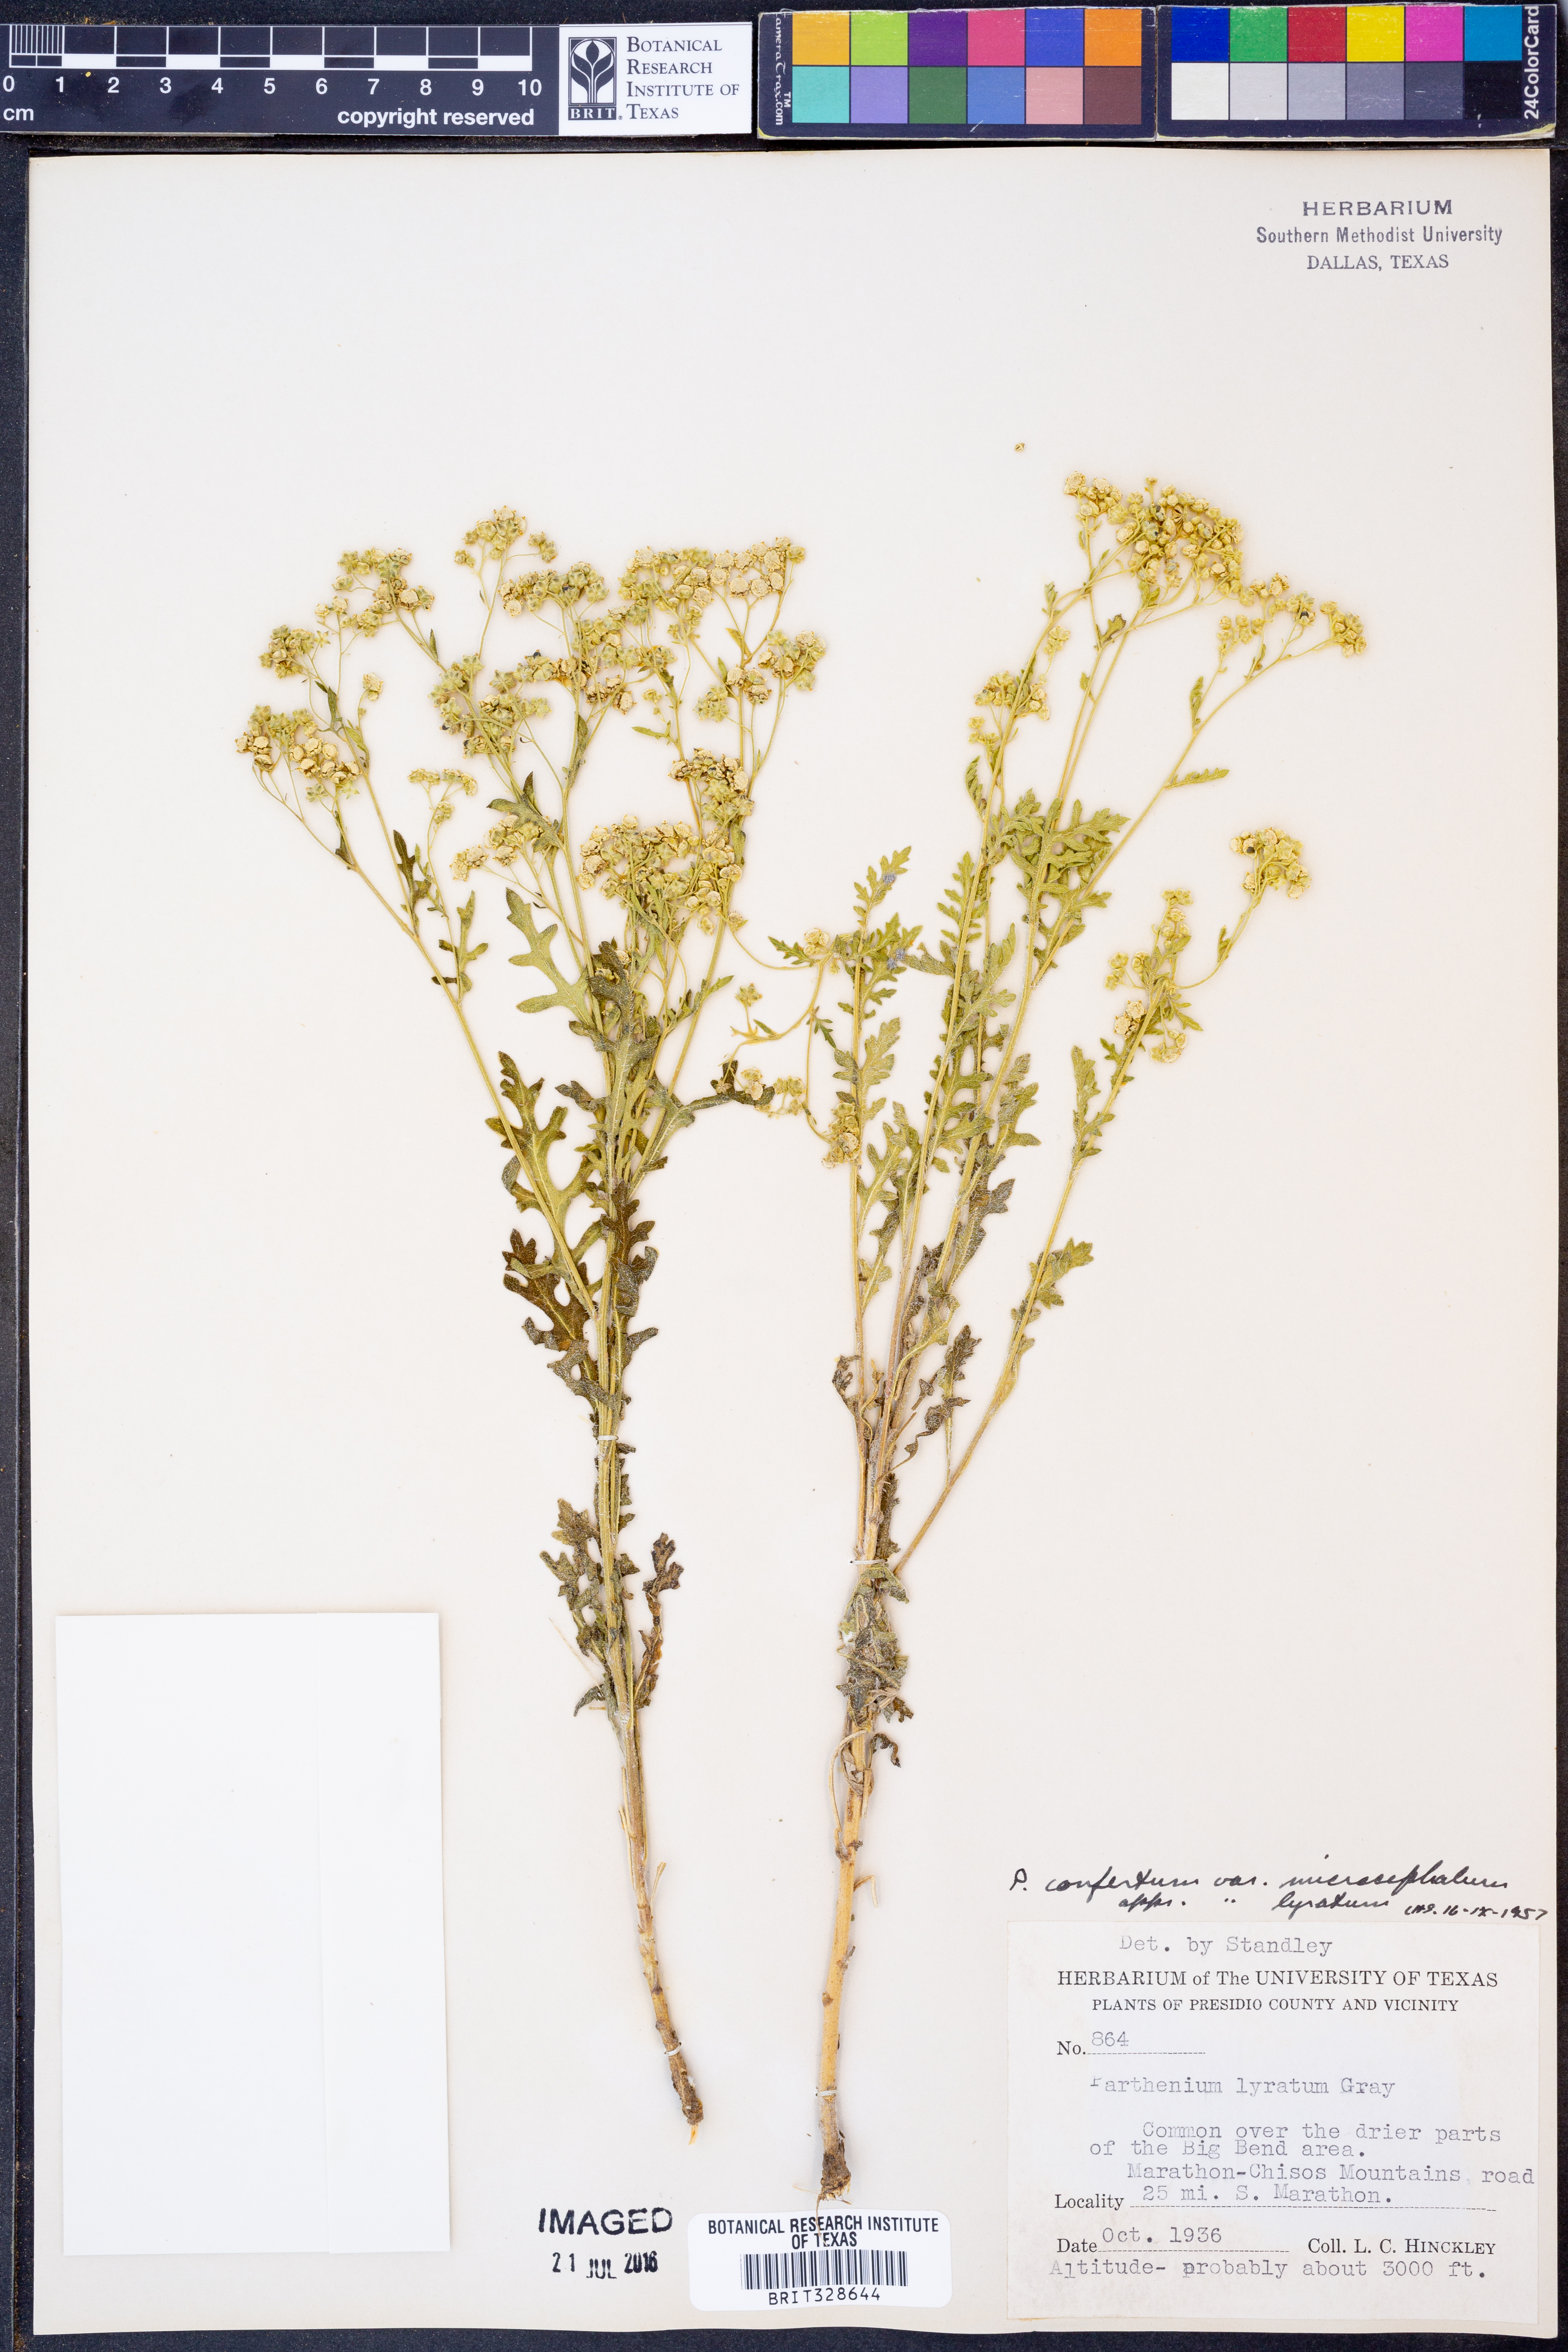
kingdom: Plantae
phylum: Tracheophyta
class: Magnoliopsida
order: Asterales
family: Asteraceae
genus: Parthenium
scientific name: Parthenium confertum
